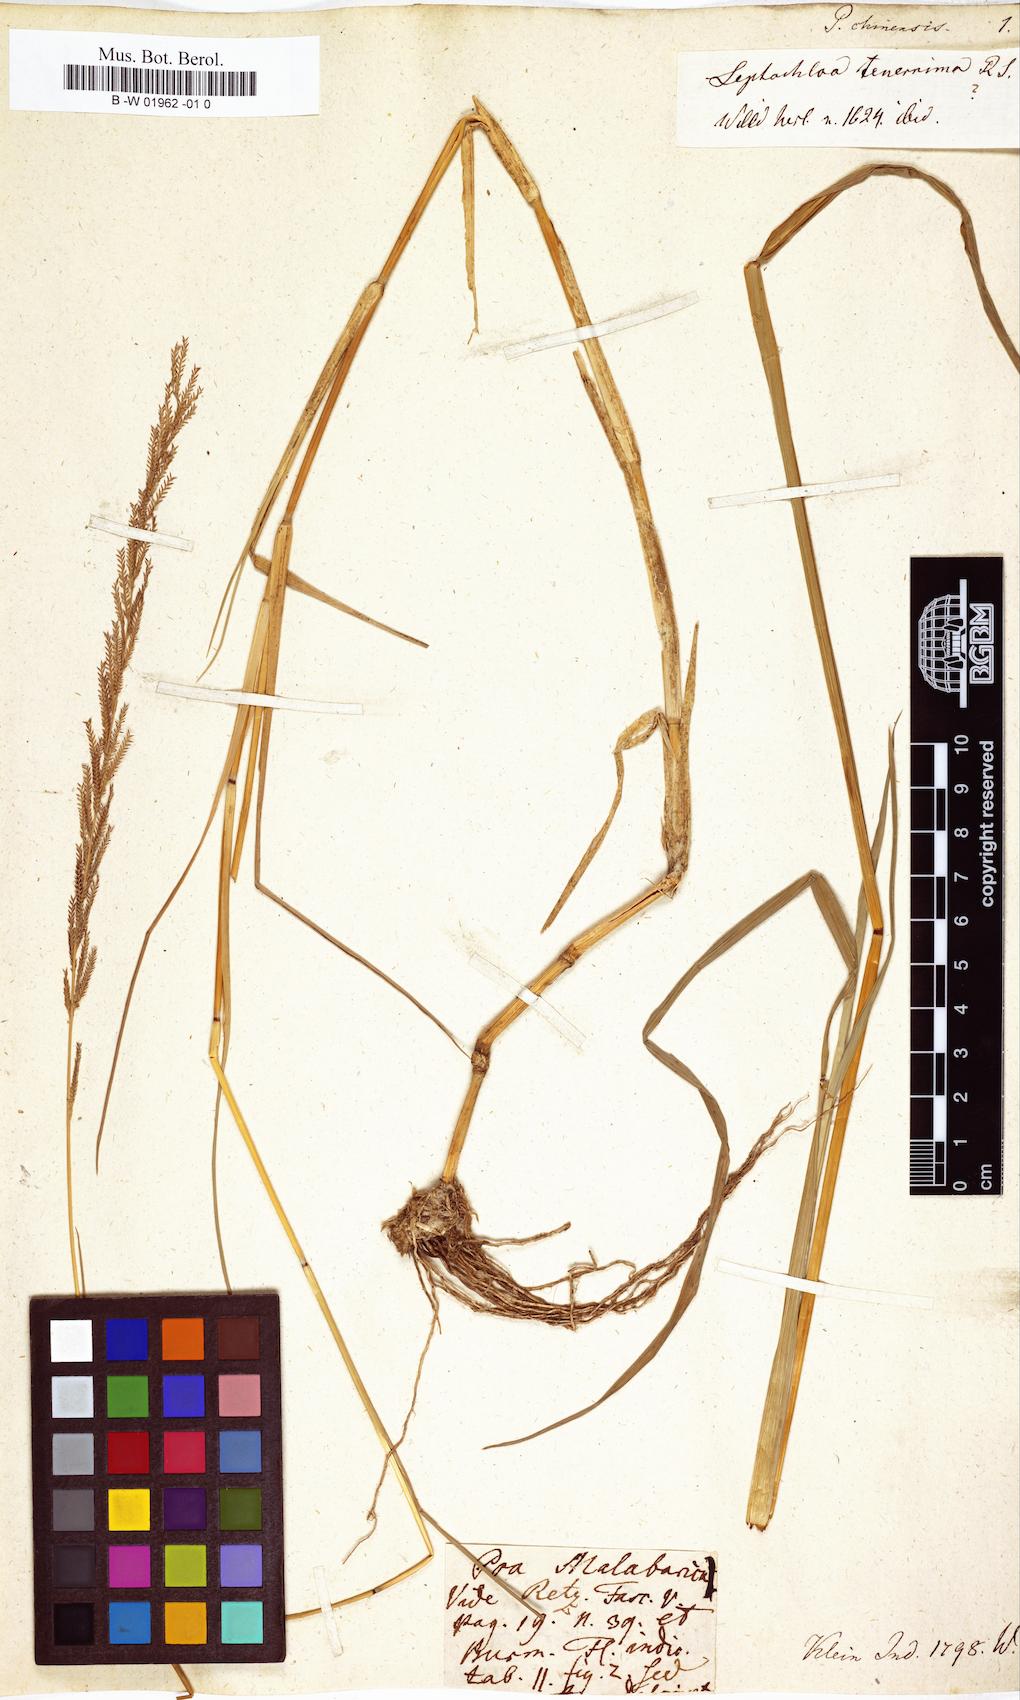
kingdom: Plantae
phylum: Tracheophyta
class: Liliopsida
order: Poales
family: Poaceae
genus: Leptochloa
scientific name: Leptochloa chinensis
